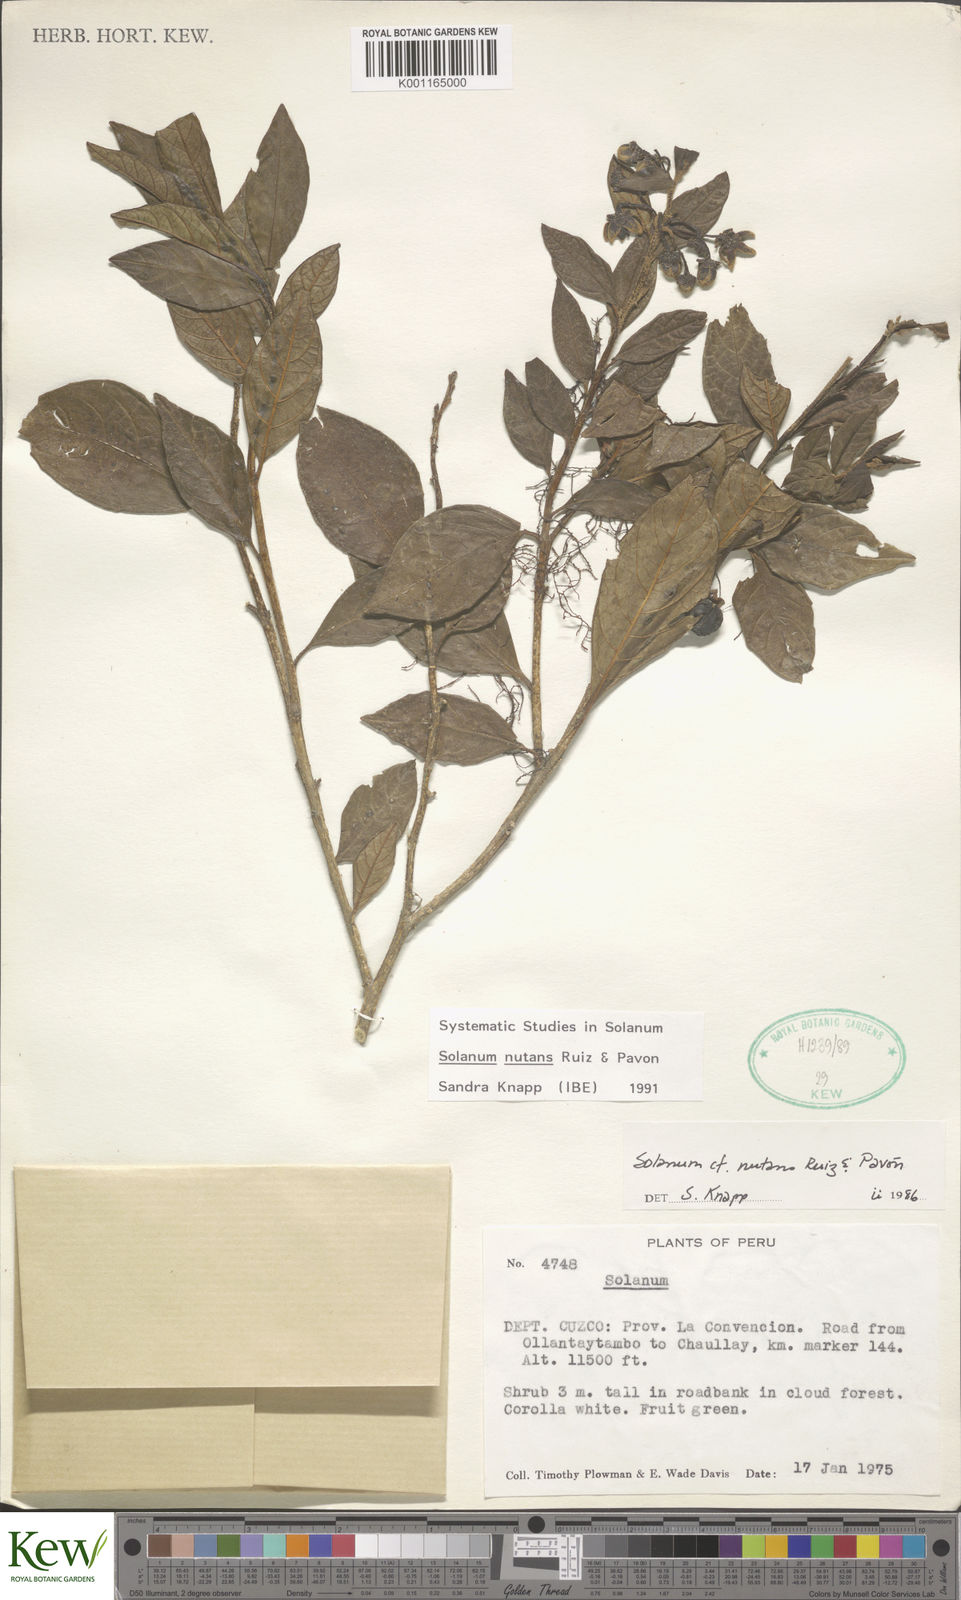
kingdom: Plantae
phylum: Tracheophyta
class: Magnoliopsida
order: Solanales
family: Solanaceae
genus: Solanum
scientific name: Solanum nutans
